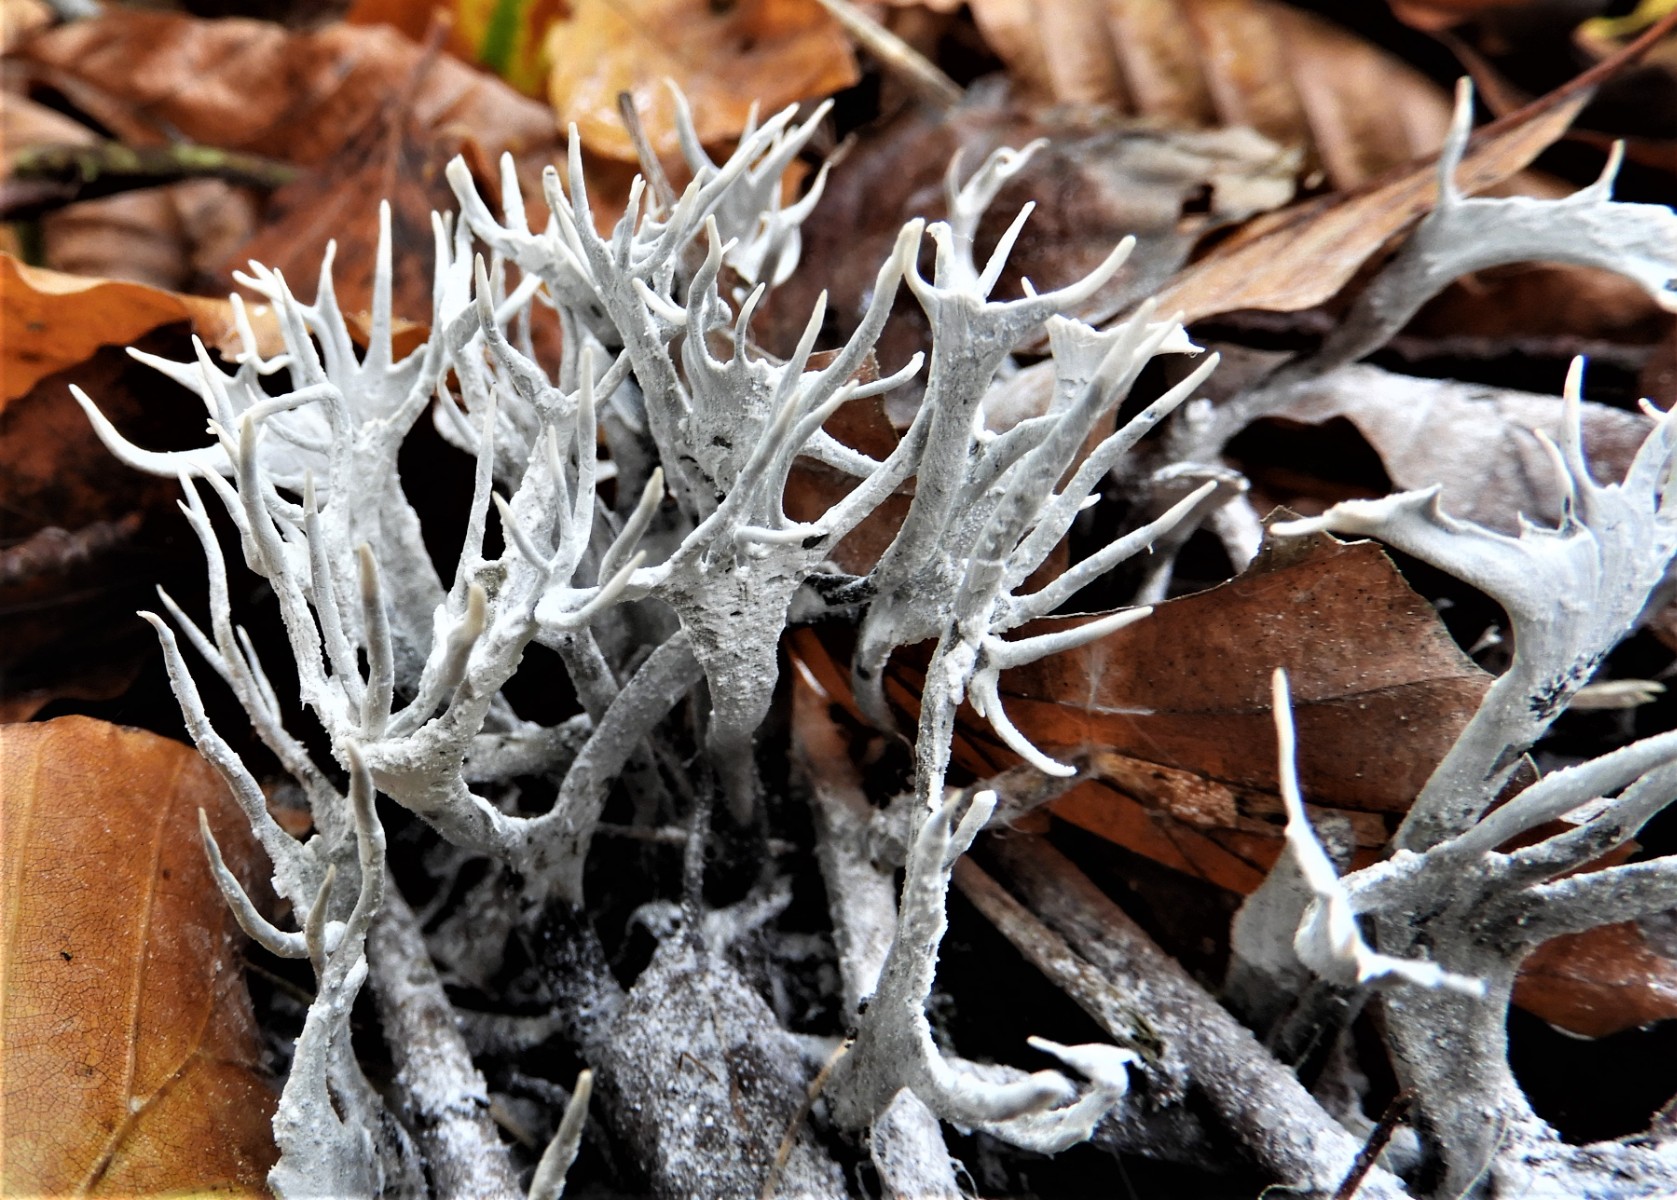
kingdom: Fungi
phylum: Ascomycota
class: Sordariomycetes
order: Xylariales
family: Xylariaceae
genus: Xylaria
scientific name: Xylaria hypoxylon
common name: grenet stødsvamp
